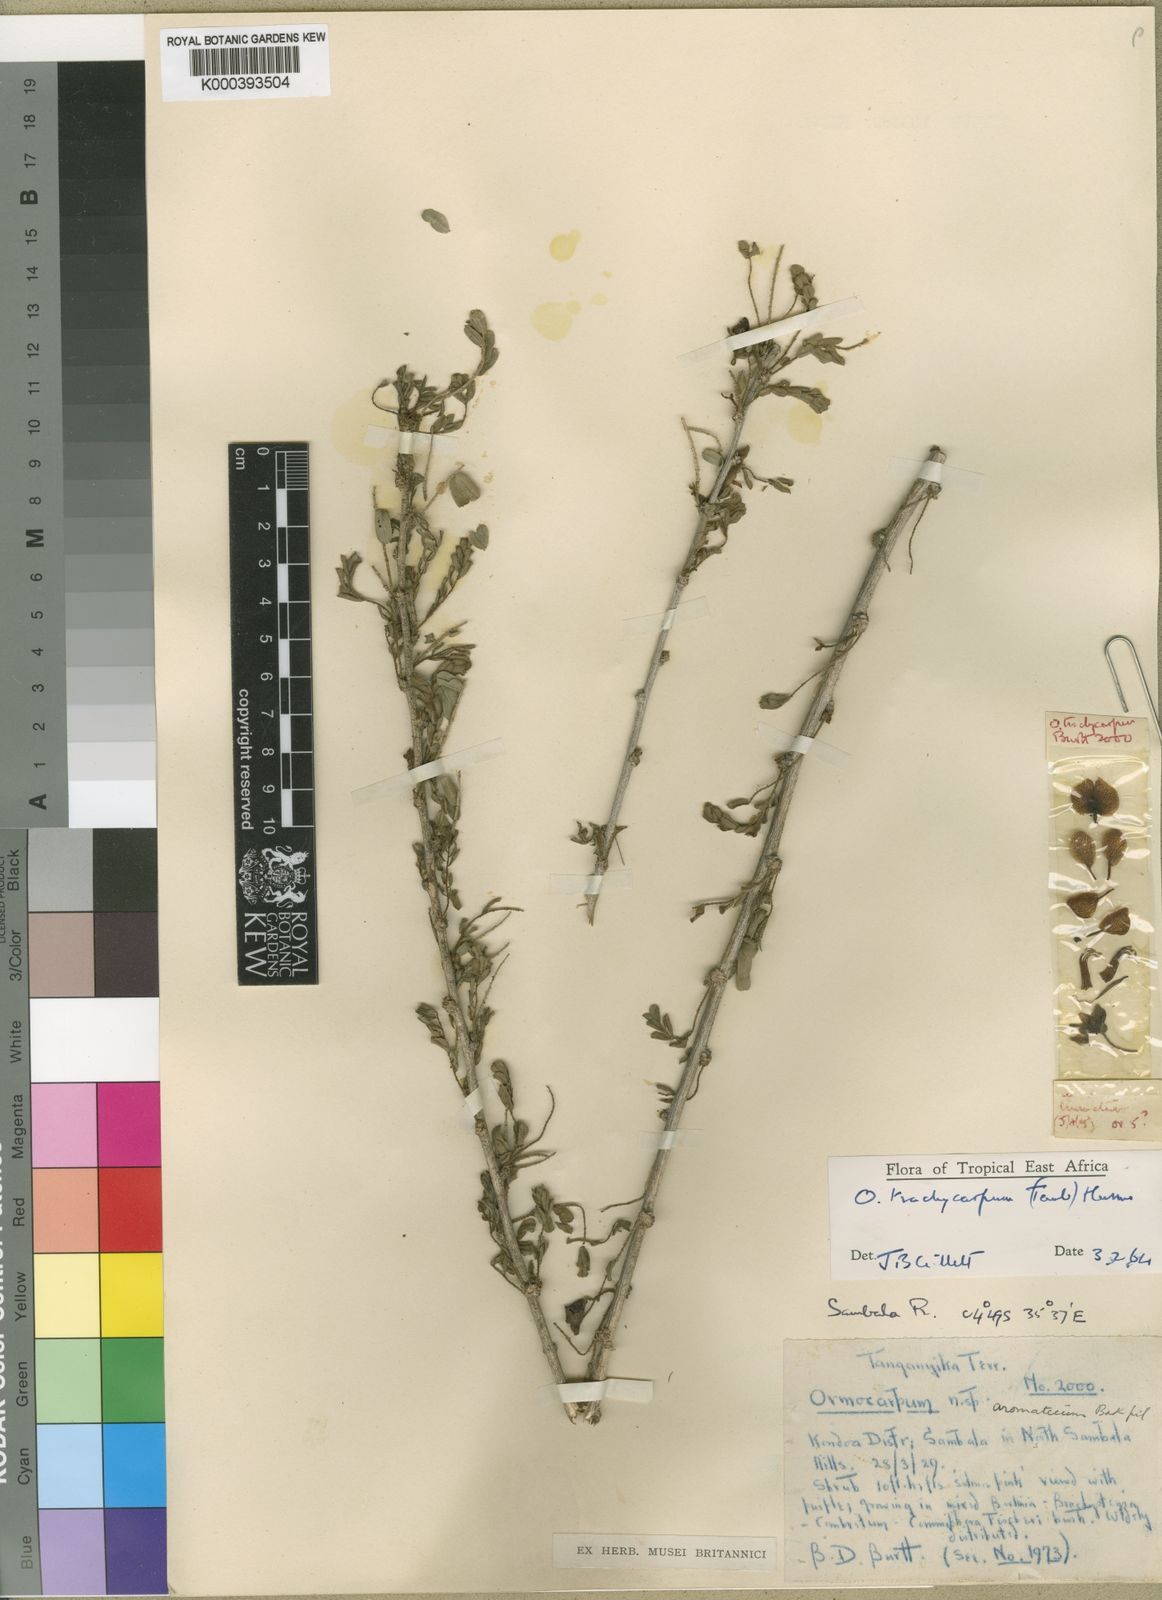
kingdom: Plantae
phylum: Tracheophyta
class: Magnoliopsida
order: Fabales
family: Fabaceae
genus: Ormocarpum
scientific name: Ormocarpum trachycarpum
